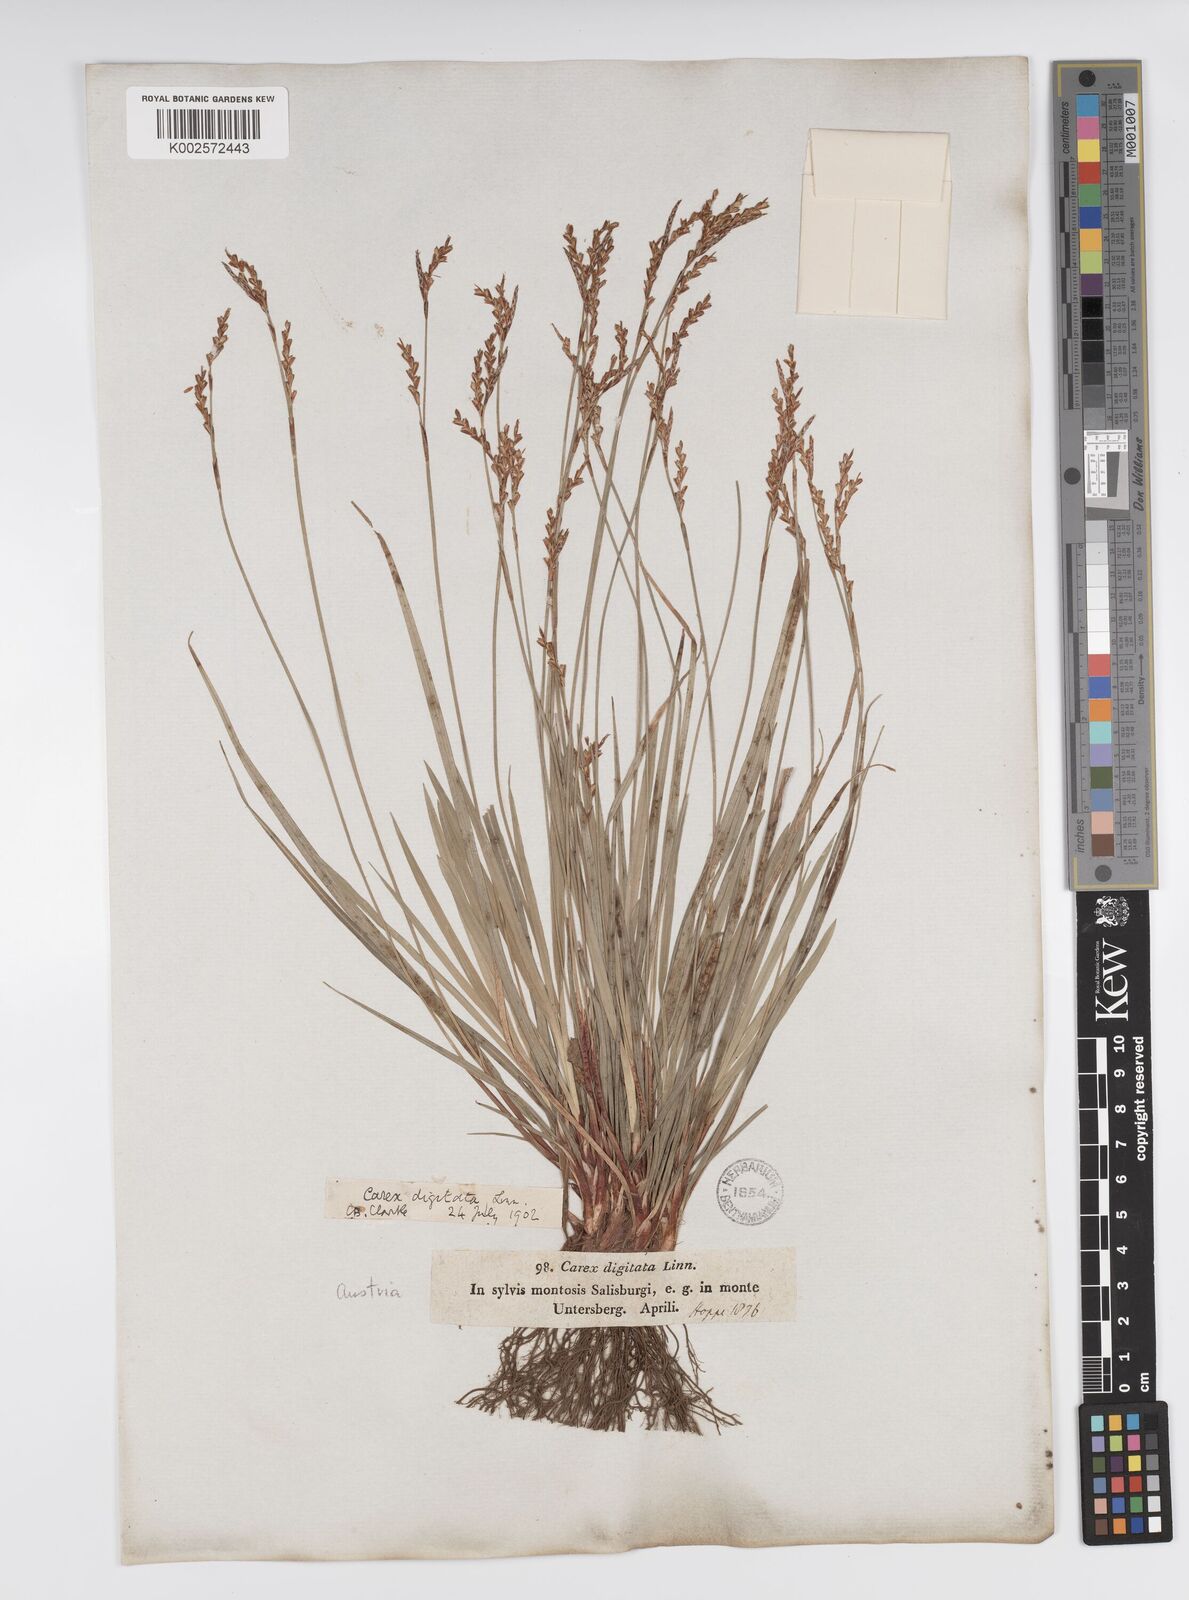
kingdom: Plantae
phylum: Tracheophyta
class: Liliopsida
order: Poales
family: Cyperaceae
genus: Carex
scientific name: Carex digitata
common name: Fingered sedge
